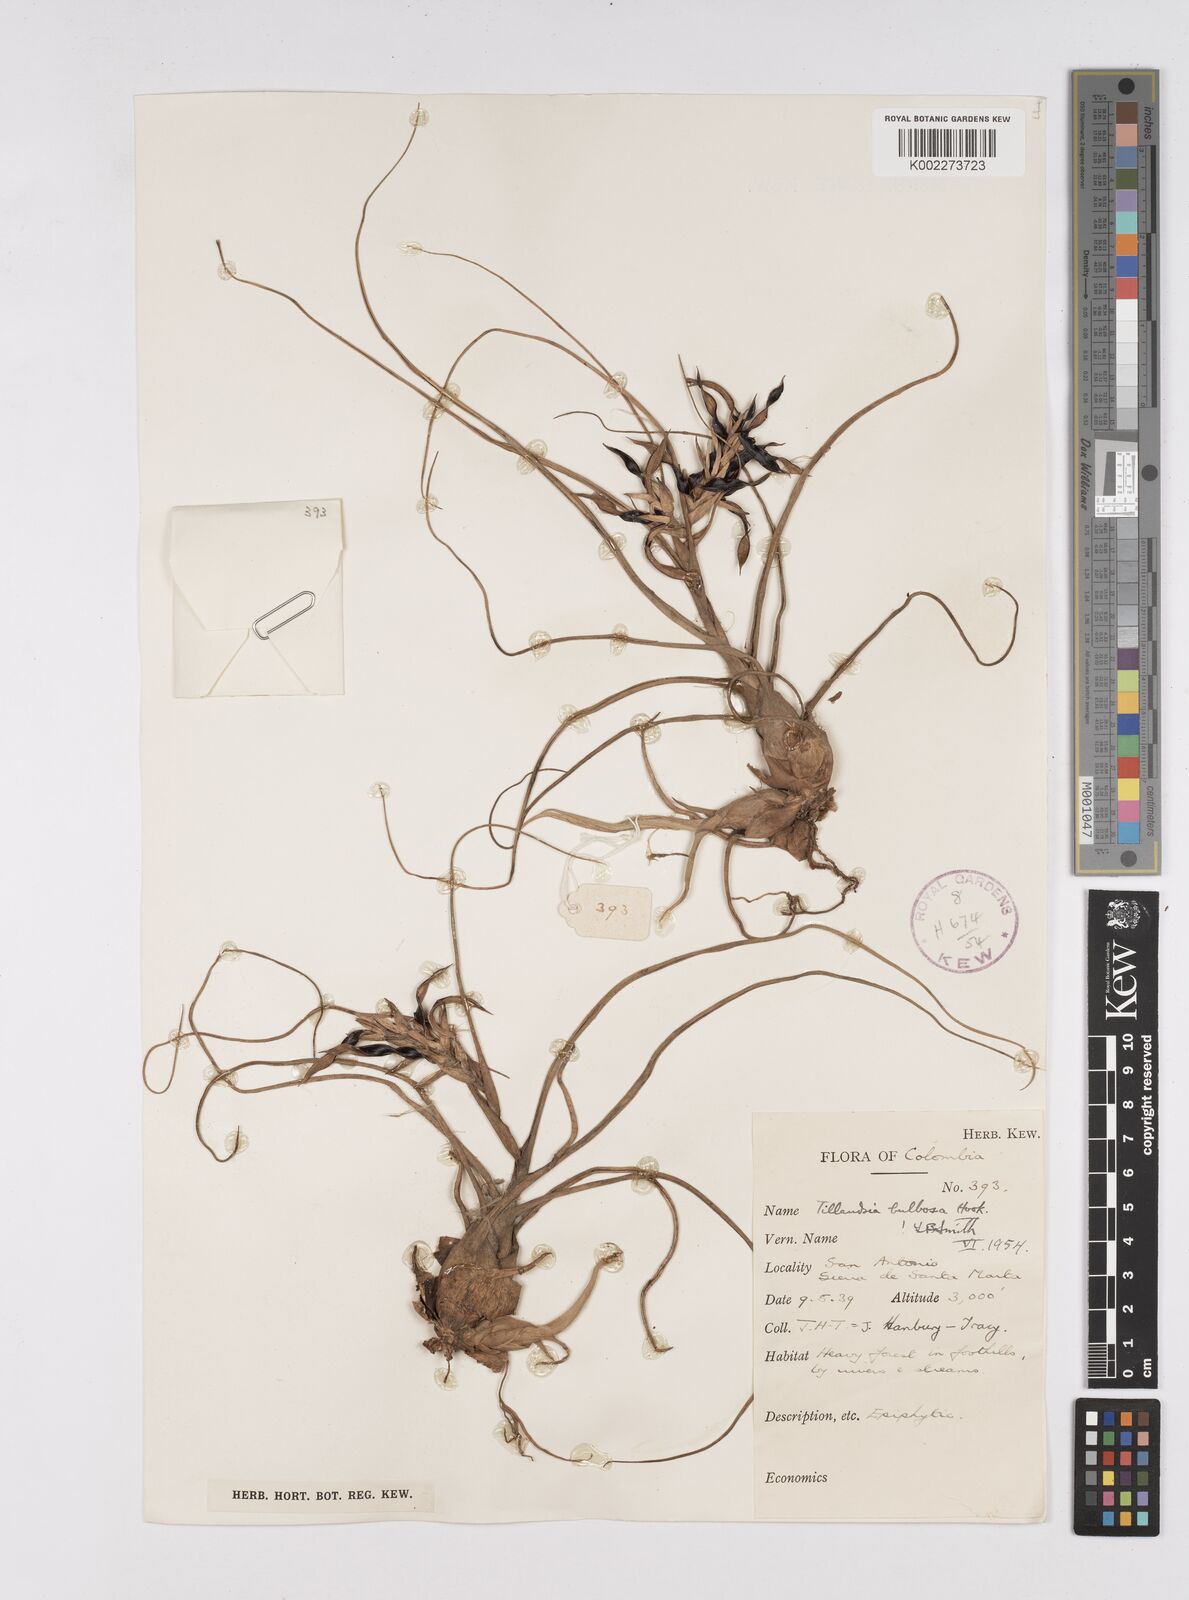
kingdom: Plantae
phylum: Tracheophyta
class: Liliopsida
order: Poales
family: Bromeliaceae
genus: Tillandsia
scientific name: Tillandsia bulbosa
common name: Bulbous airplant
